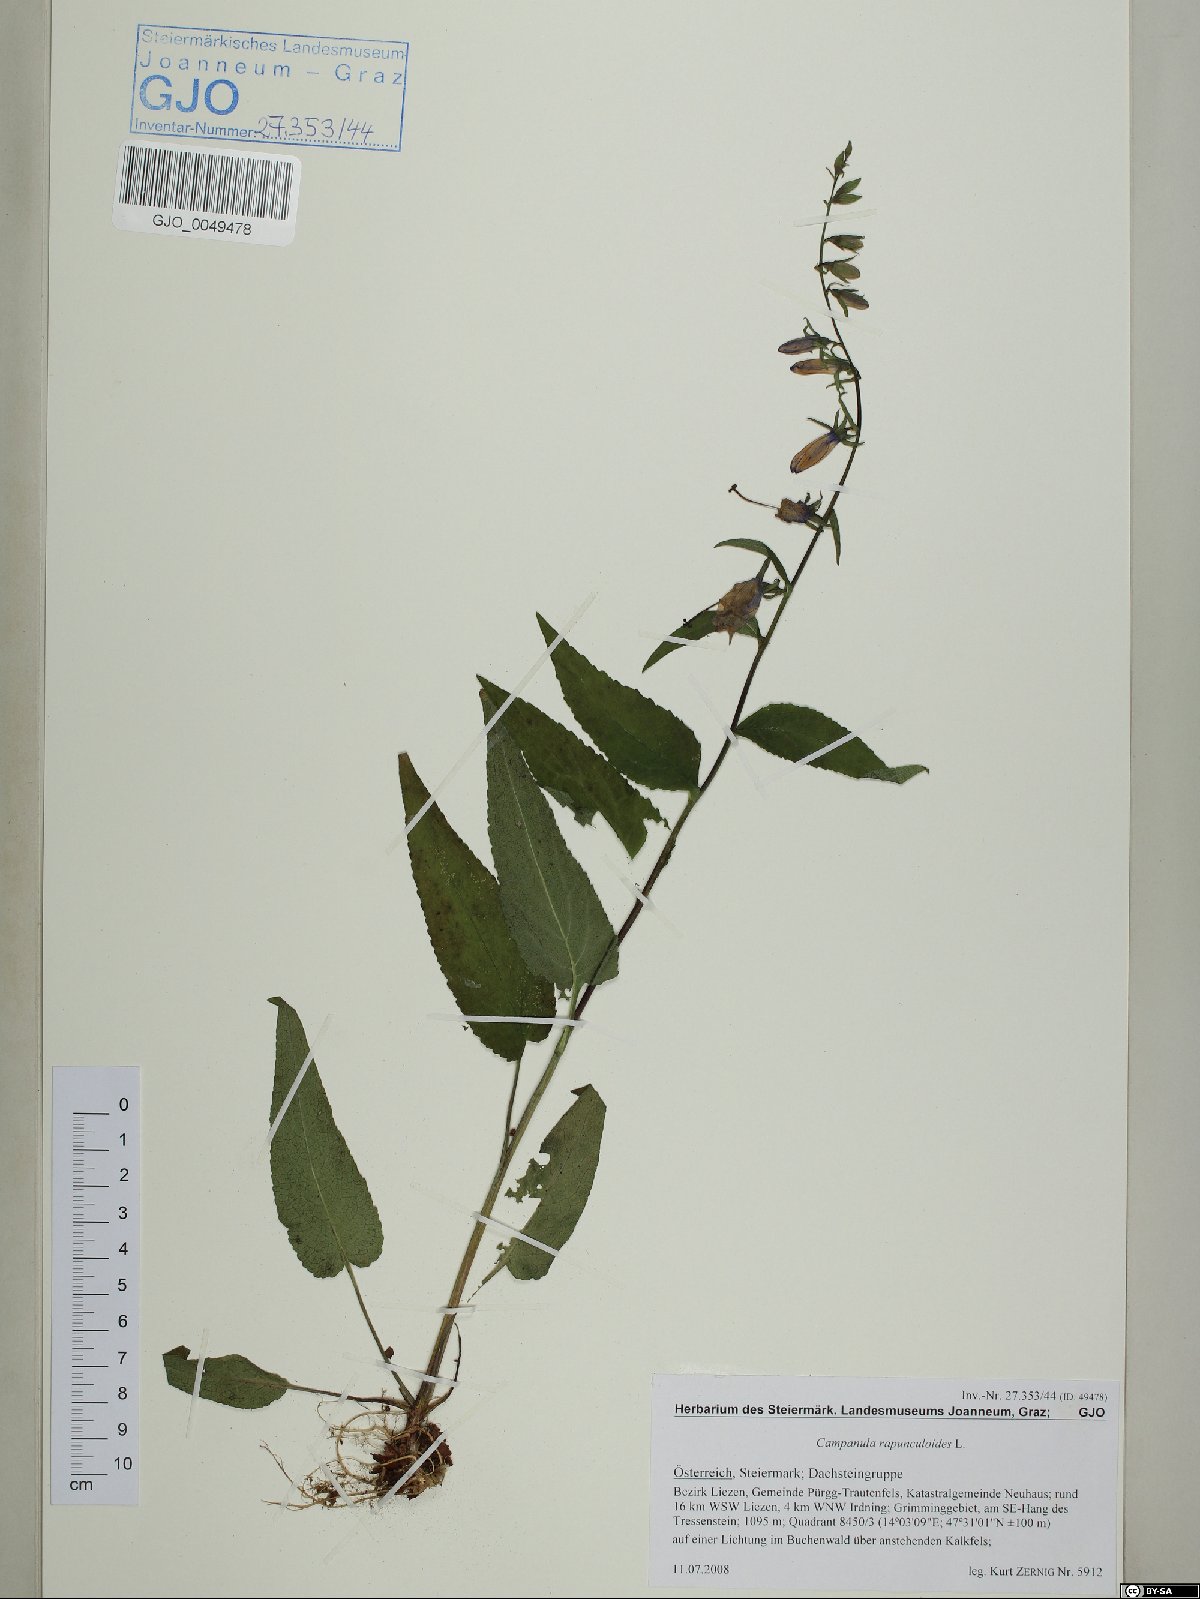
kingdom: Plantae
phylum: Tracheophyta
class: Magnoliopsida
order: Asterales
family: Campanulaceae
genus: Campanula
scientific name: Campanula rapunculoides
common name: Creeping bellflower
